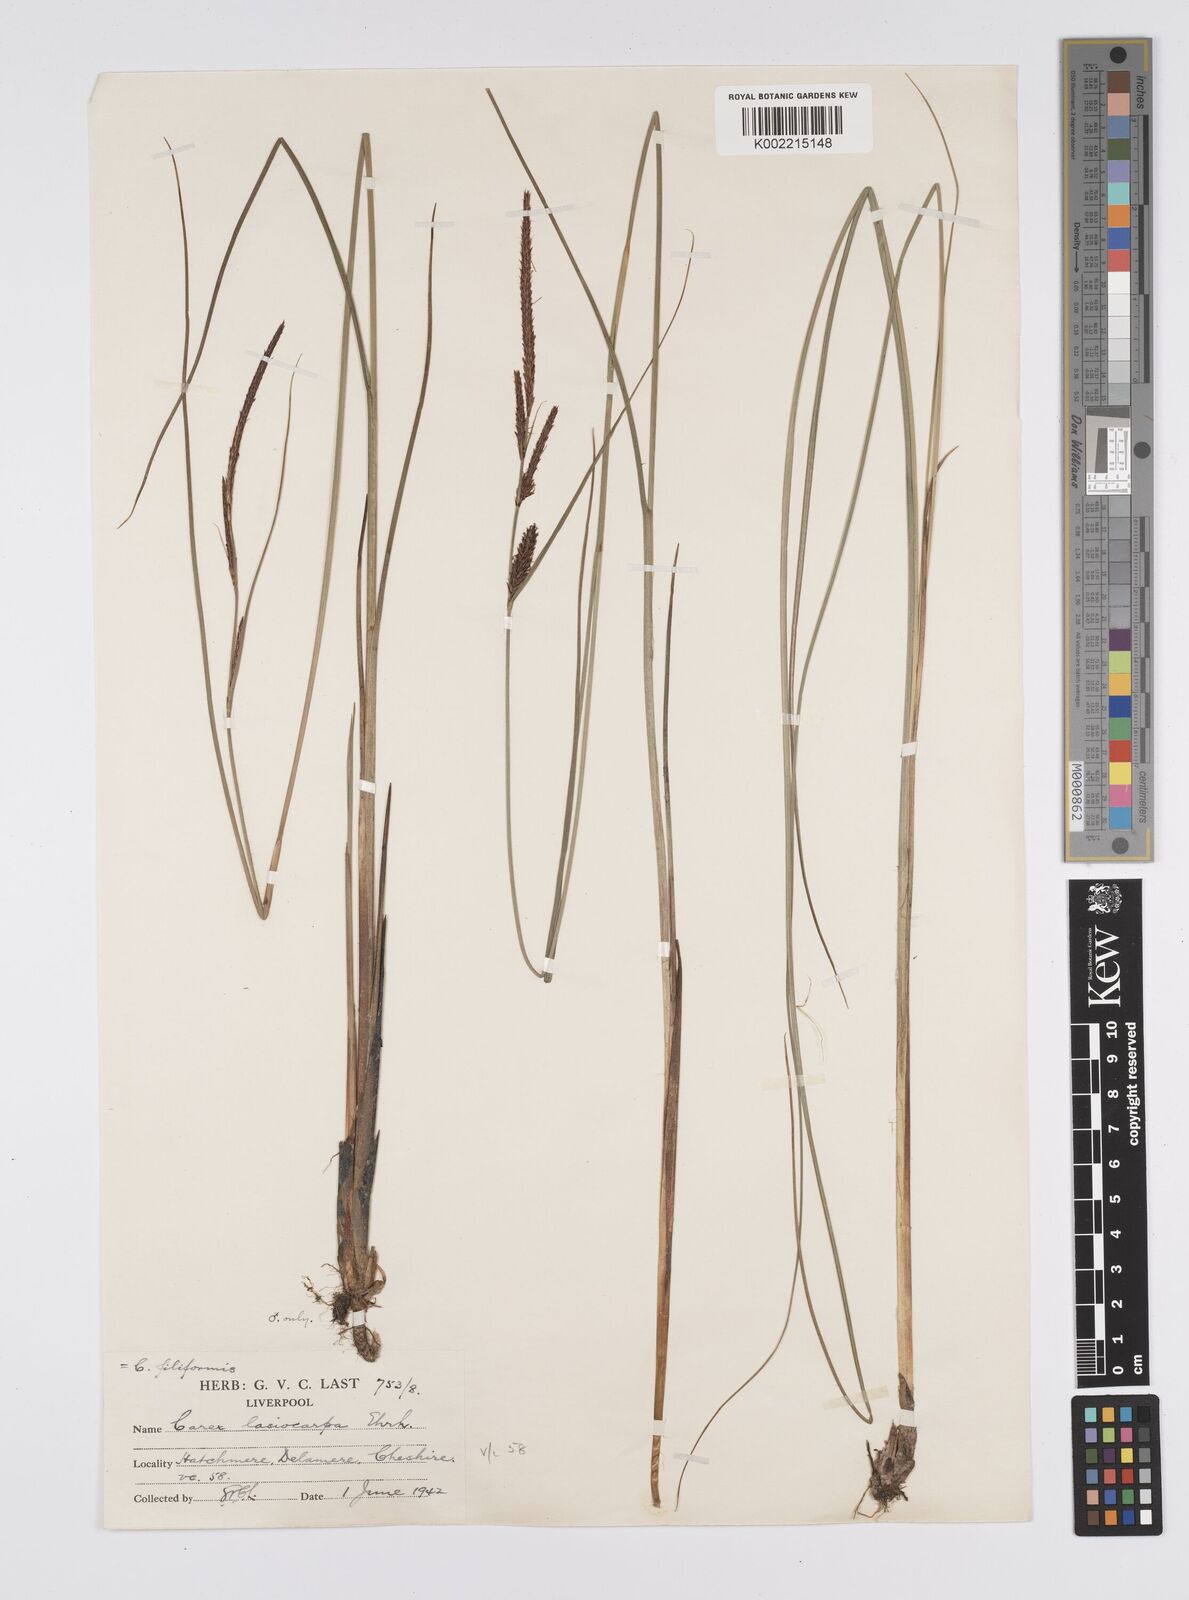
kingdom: Plantae
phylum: Tracheophyta
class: Liliopsida
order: Poales
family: Cyperaceae
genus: Carex
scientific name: Carex lasiocarpa
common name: Slender sedge
